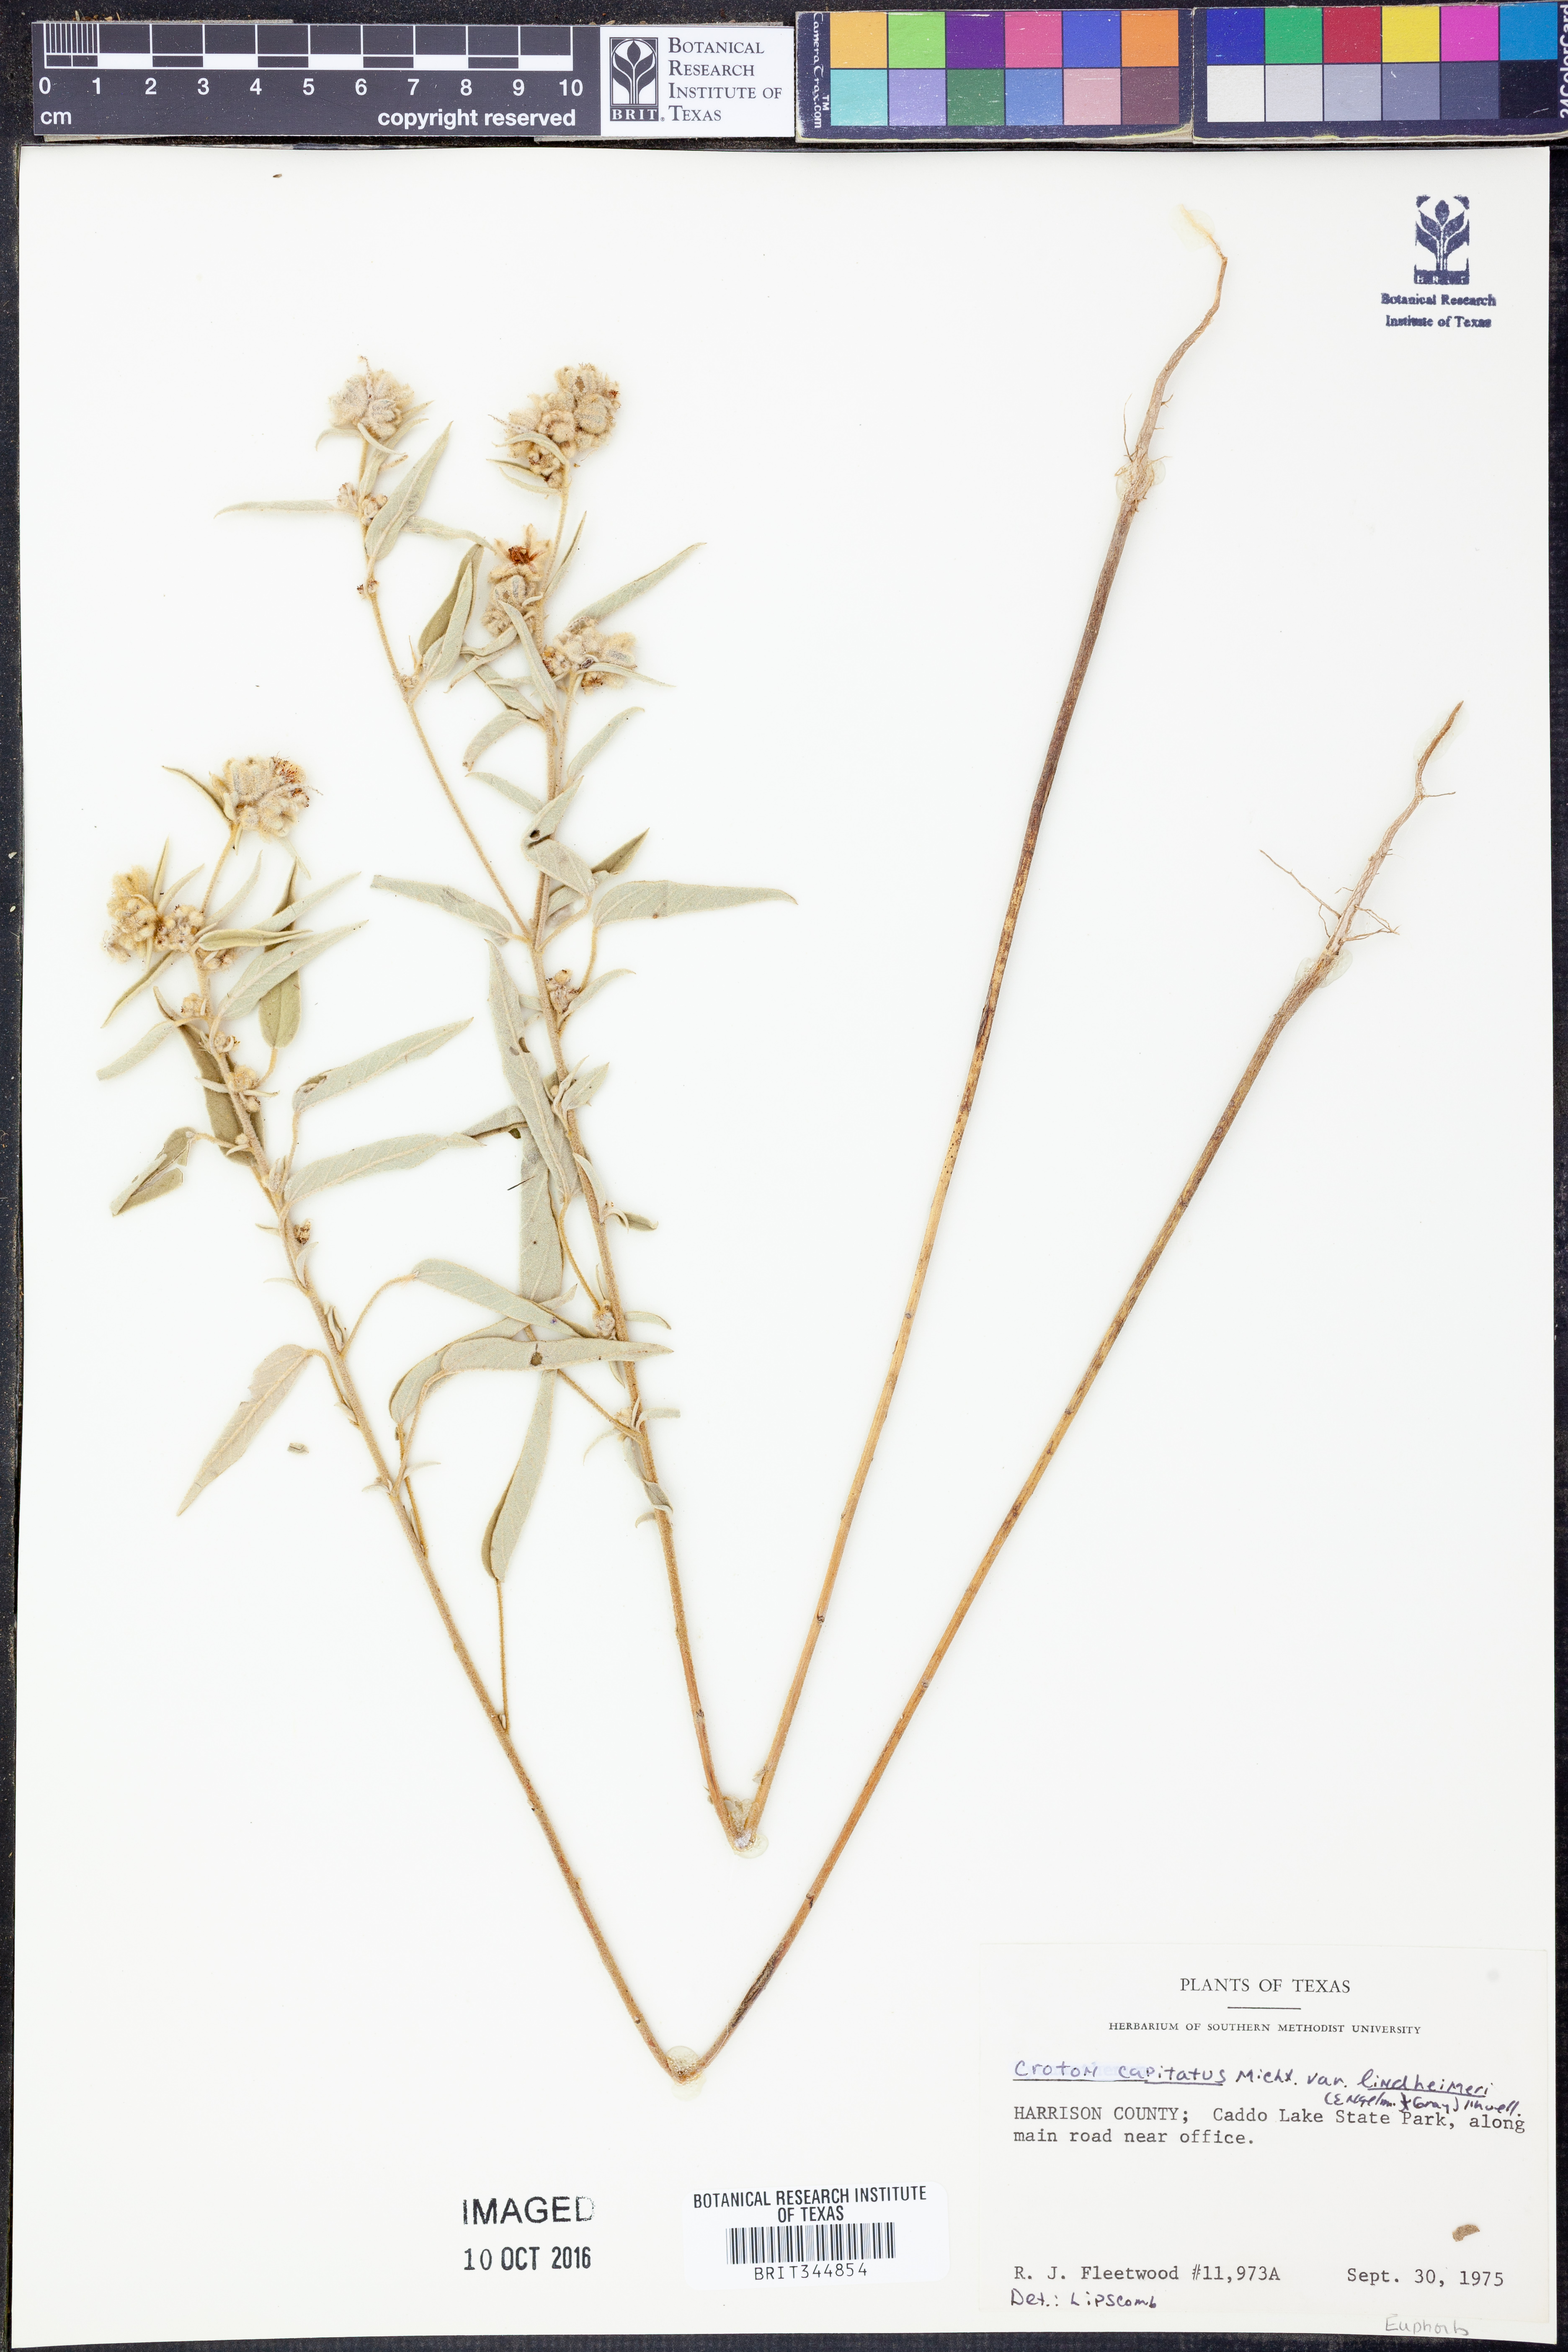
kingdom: Plantae
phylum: Tracheophyta
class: Magnoliopsida
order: Malpighiales
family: Euphorbiaceae
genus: Croton
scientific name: Croton lindheimeri
